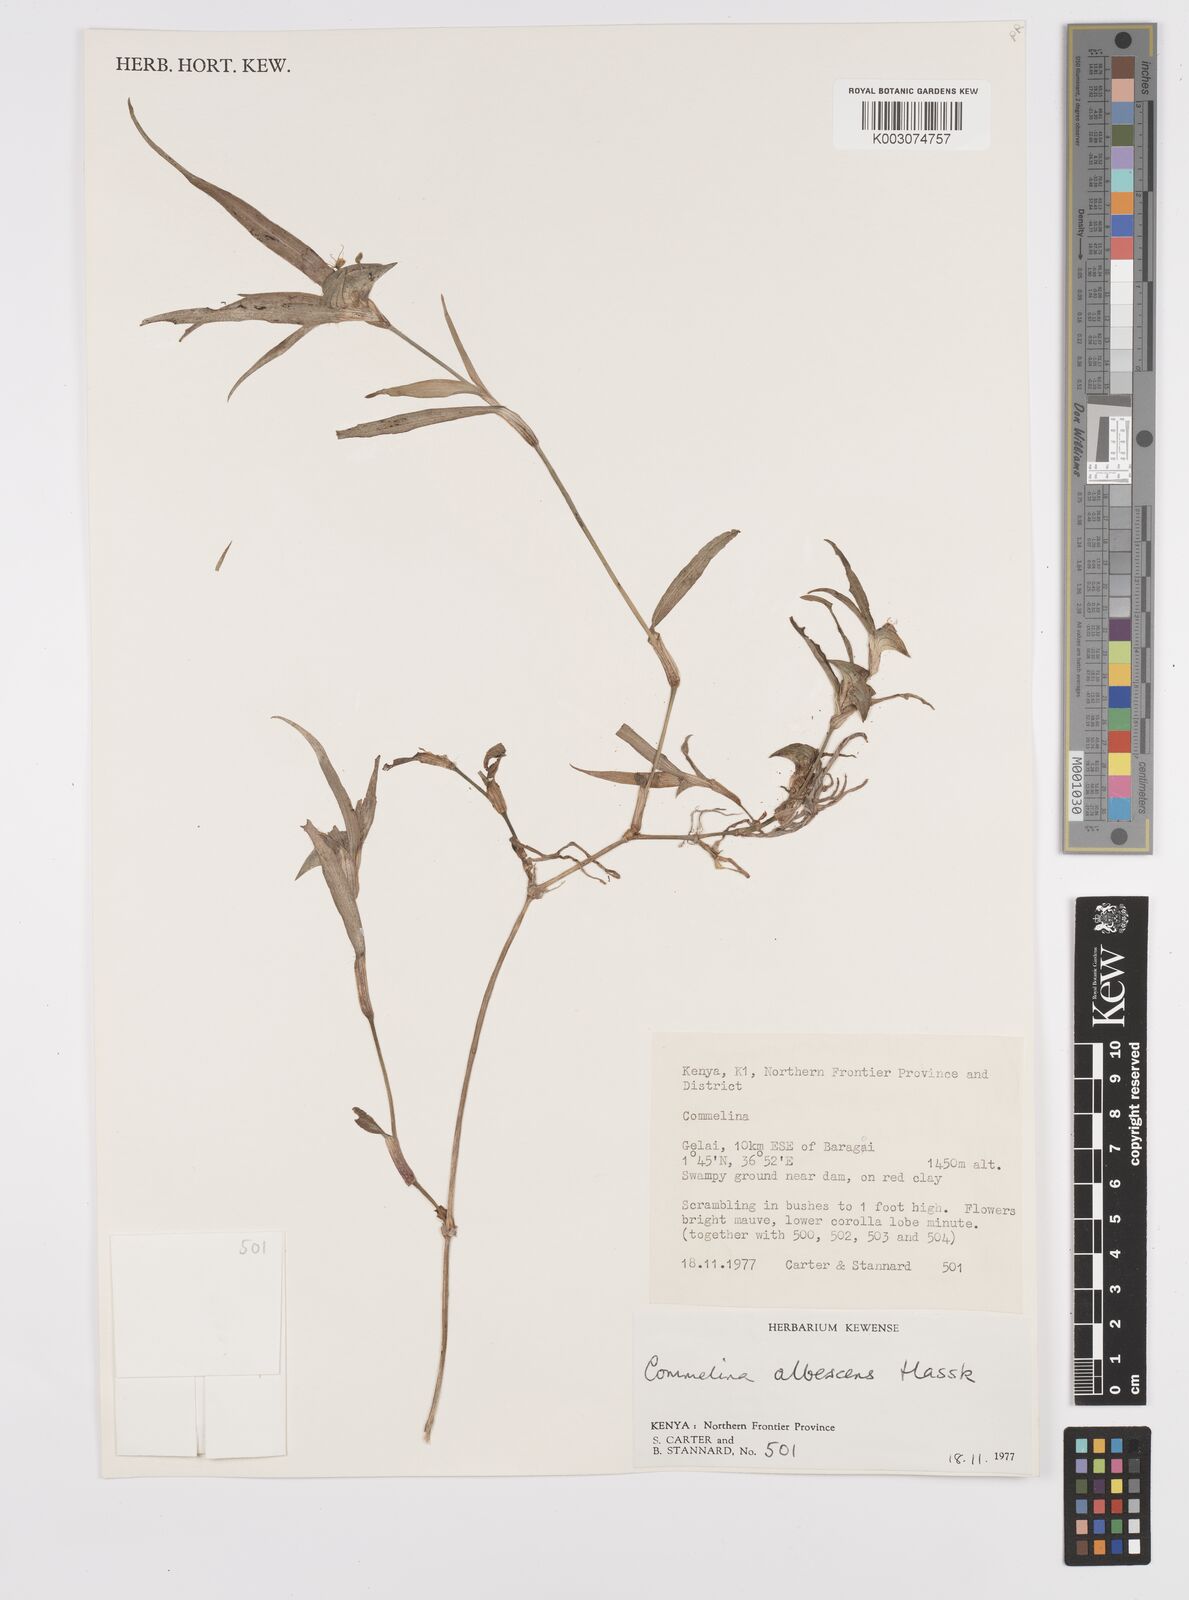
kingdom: Plantae
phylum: Tracheophyta
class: Liliopsida
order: Commelinales
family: Commelinaceae
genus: Commelina
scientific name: Commelina albescens
